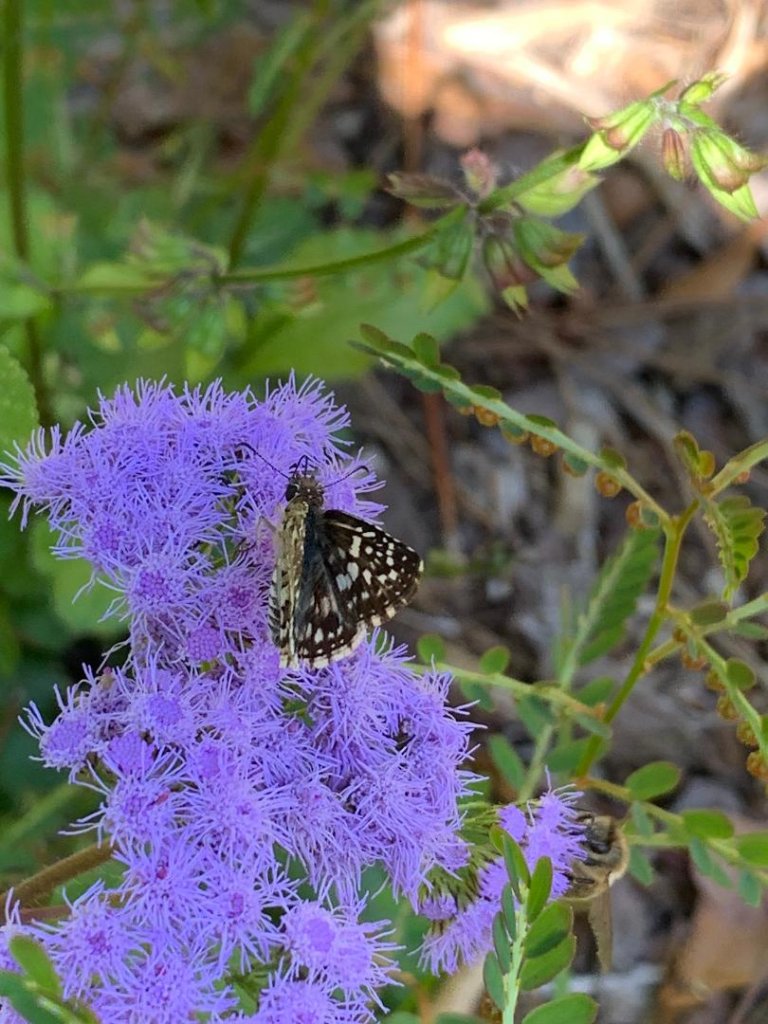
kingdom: Animalia
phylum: Arthropoda
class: Insecta
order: Lepidoptera
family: Hesperiidae
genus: Pyrgus
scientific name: Pyrgus oileus
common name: Tropical Checkered-Skipper
